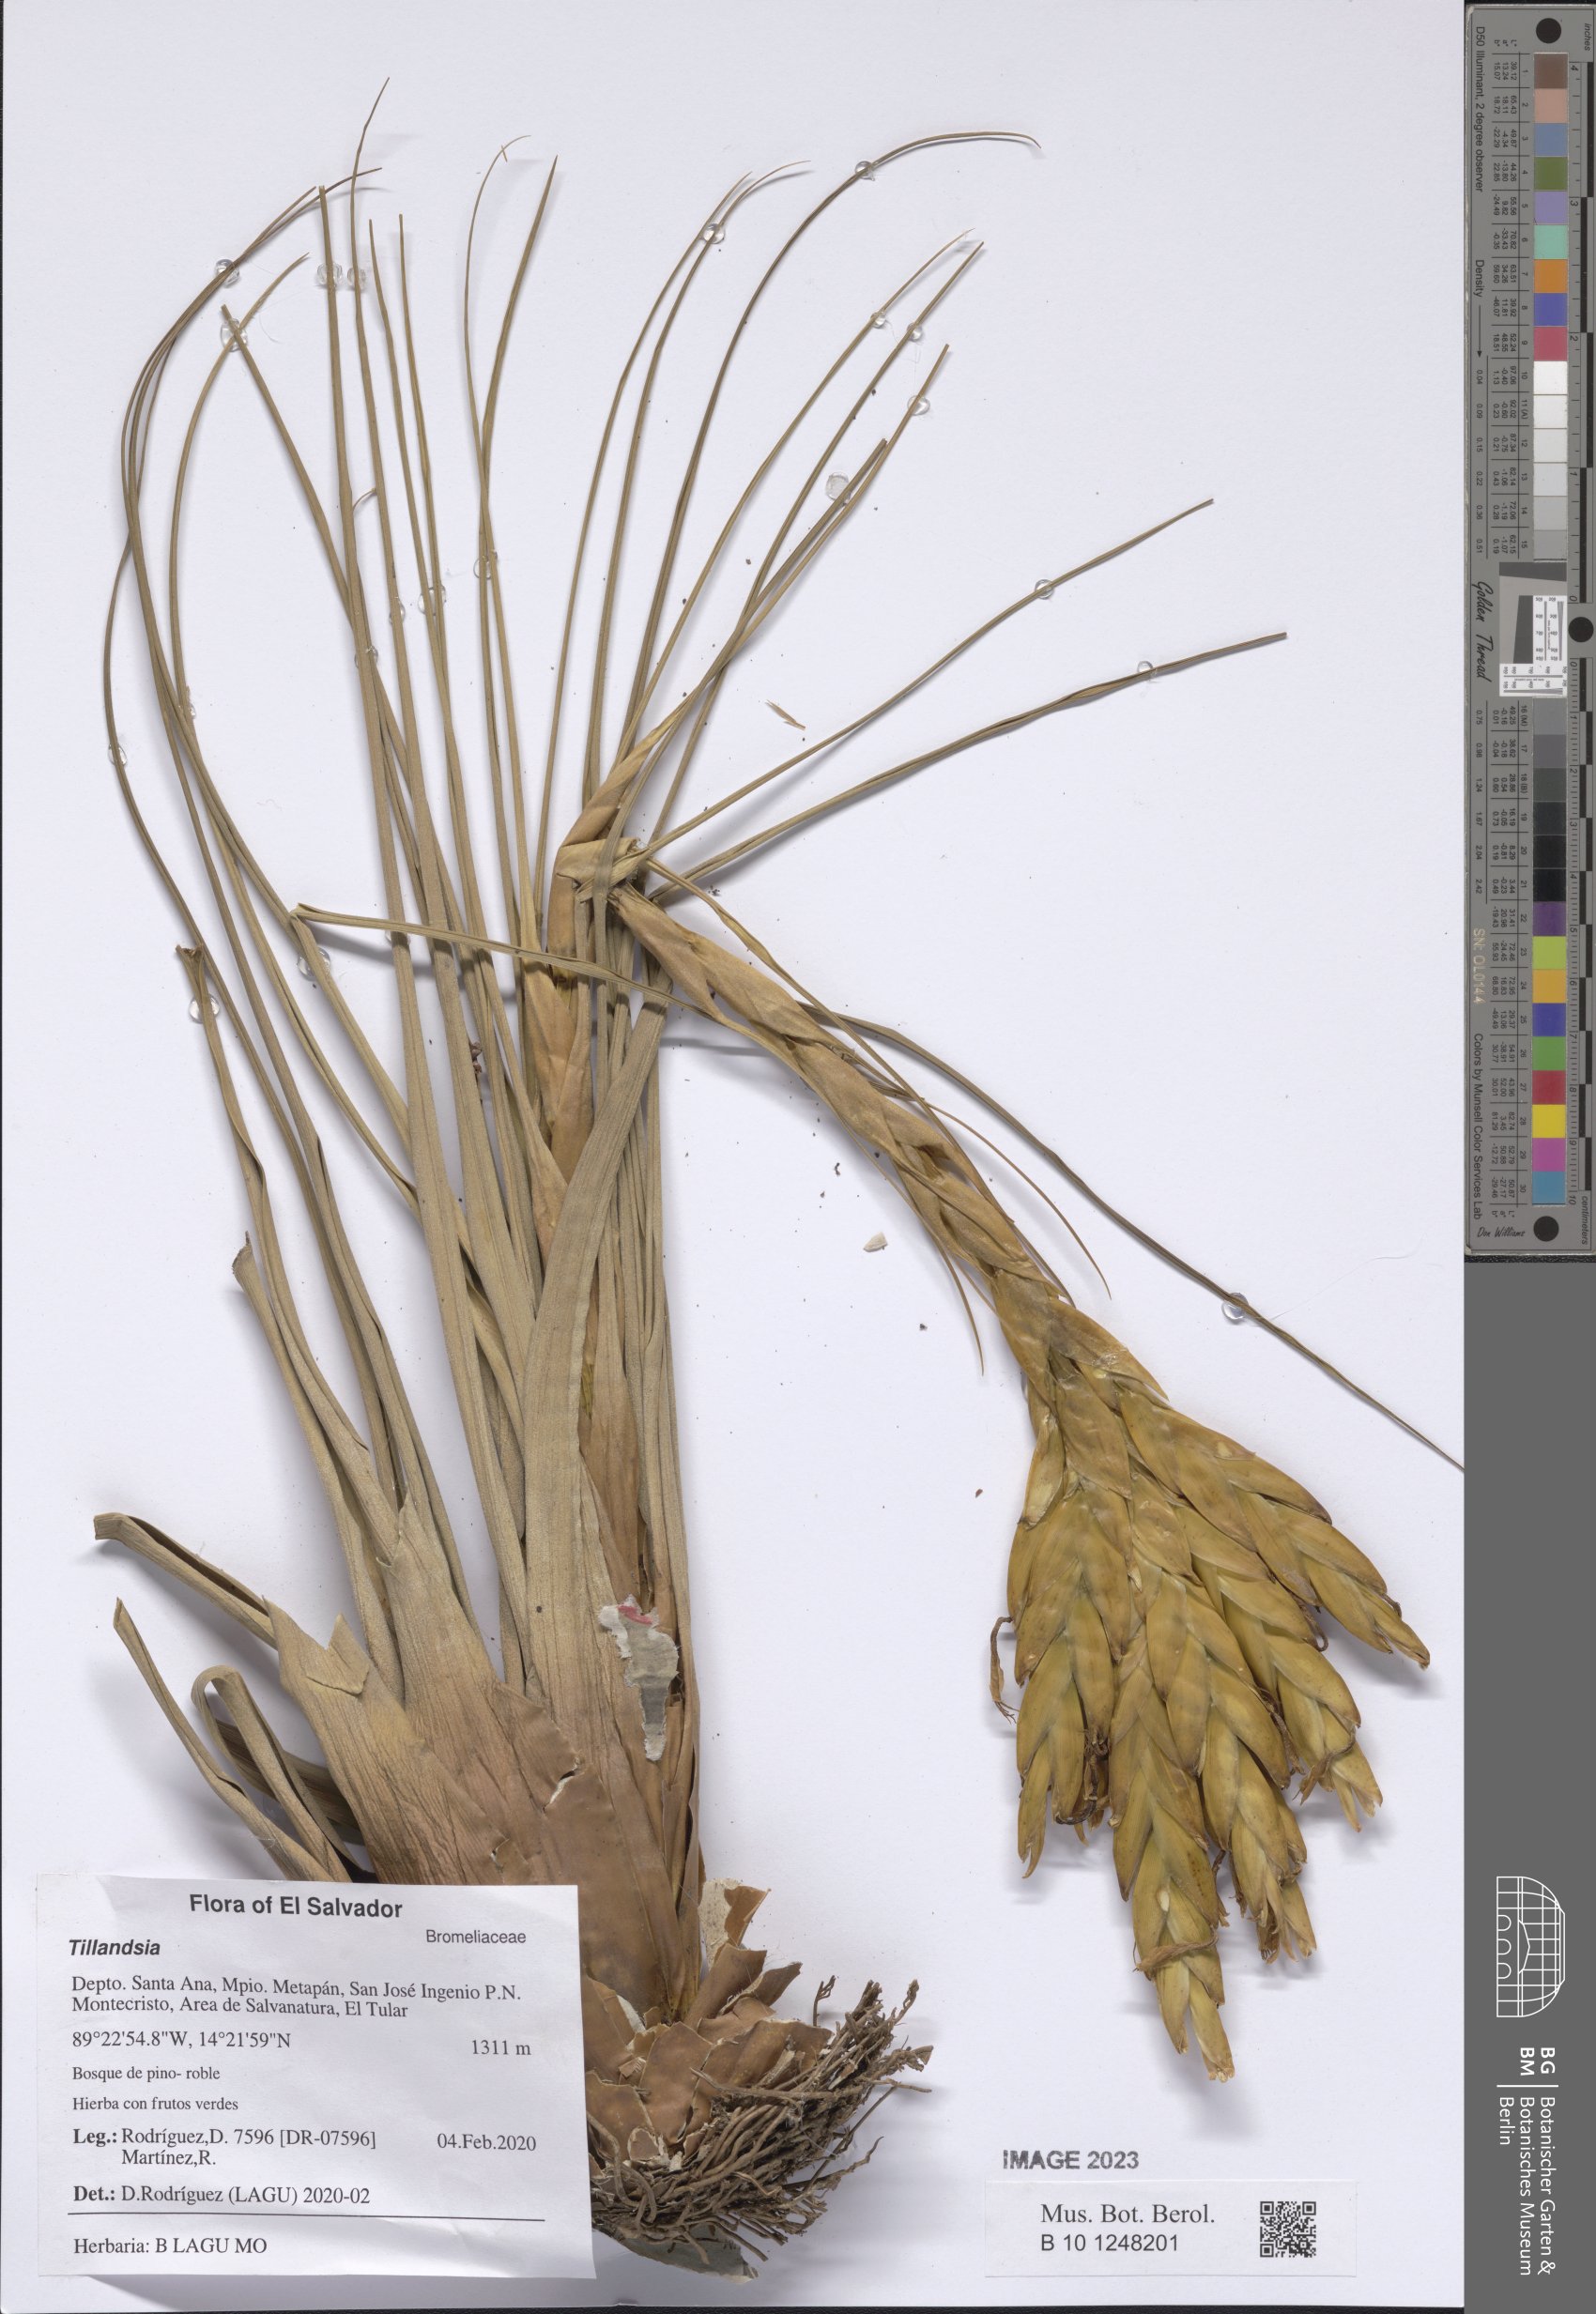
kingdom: Plantae
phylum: Tracheophyta
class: Liliopsida
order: Poales
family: Bromeliaceae
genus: Tillandsia
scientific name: Tillandsia
